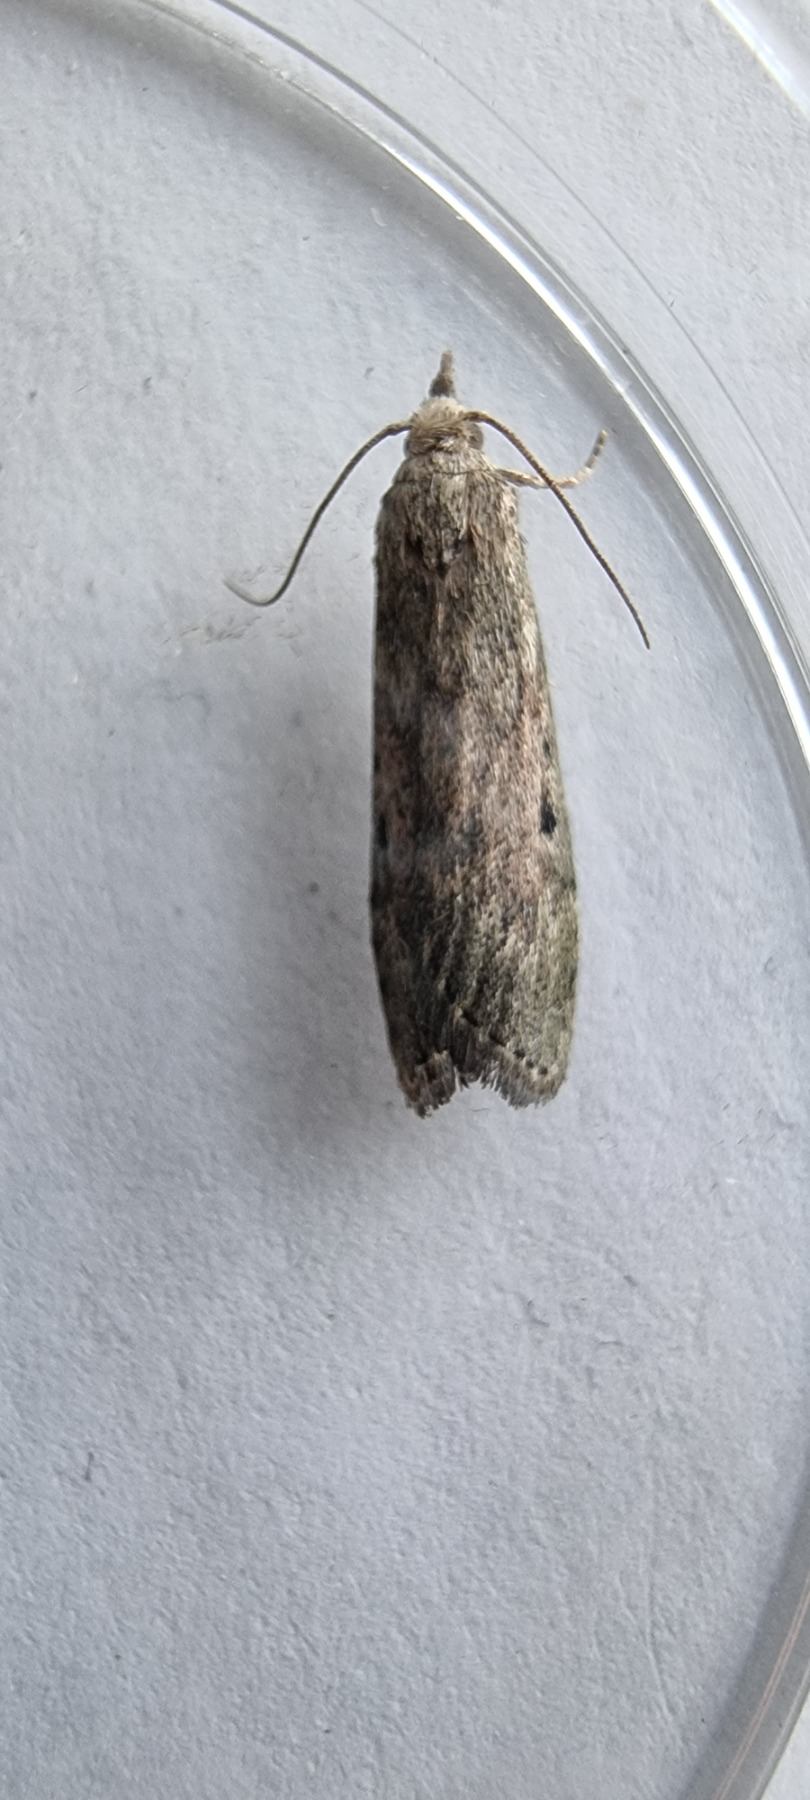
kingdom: Animalia
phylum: Arthropoda
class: Insecta
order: Lepidoptera
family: Pyralidae
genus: Aphomia
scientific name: Aphomia sociella
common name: Humlevoksmøl
